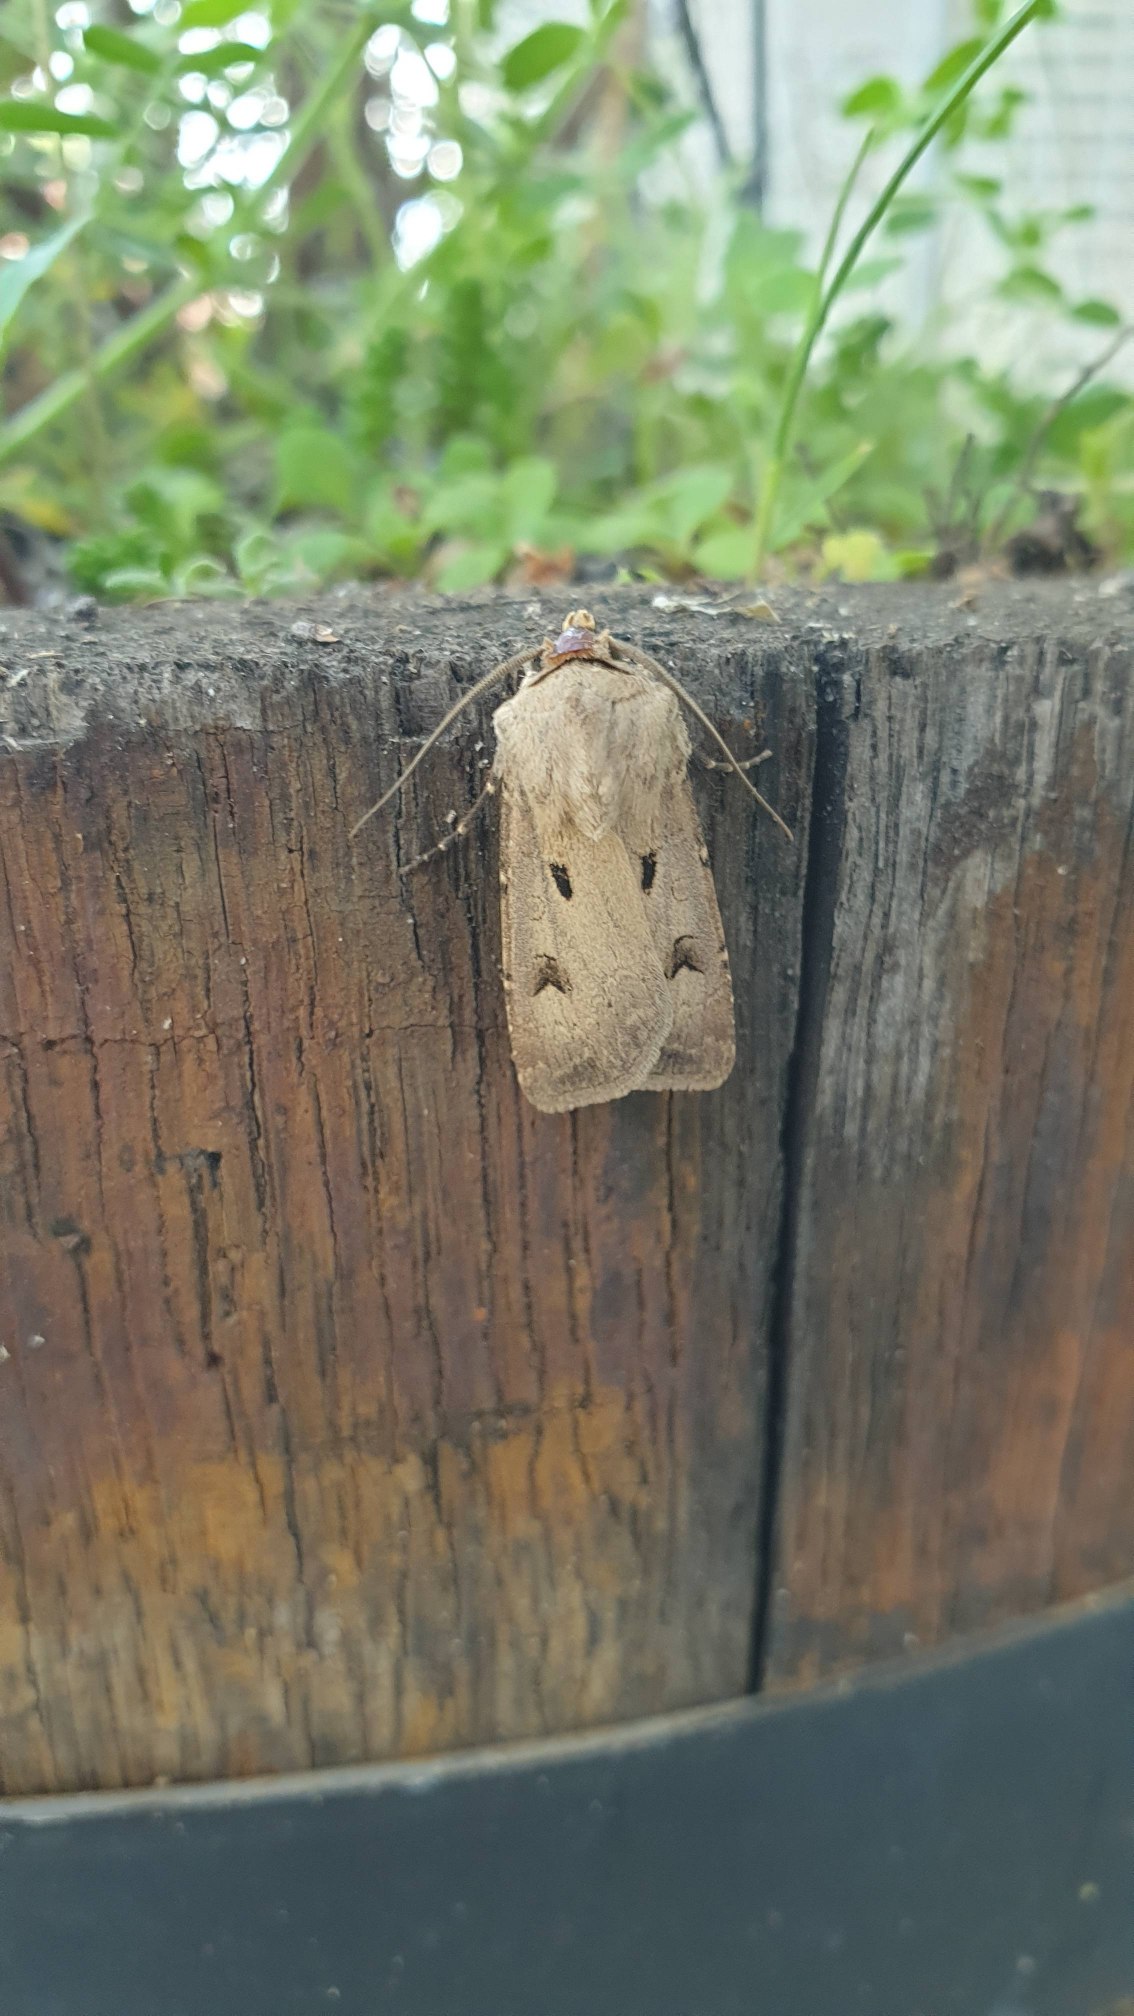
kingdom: Animalia
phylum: Arthropoda
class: Insecta
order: Lepidoptera
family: Noctuidae
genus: Agrotis
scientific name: Agrotis exclamationis
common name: Udråbstegnsugle
